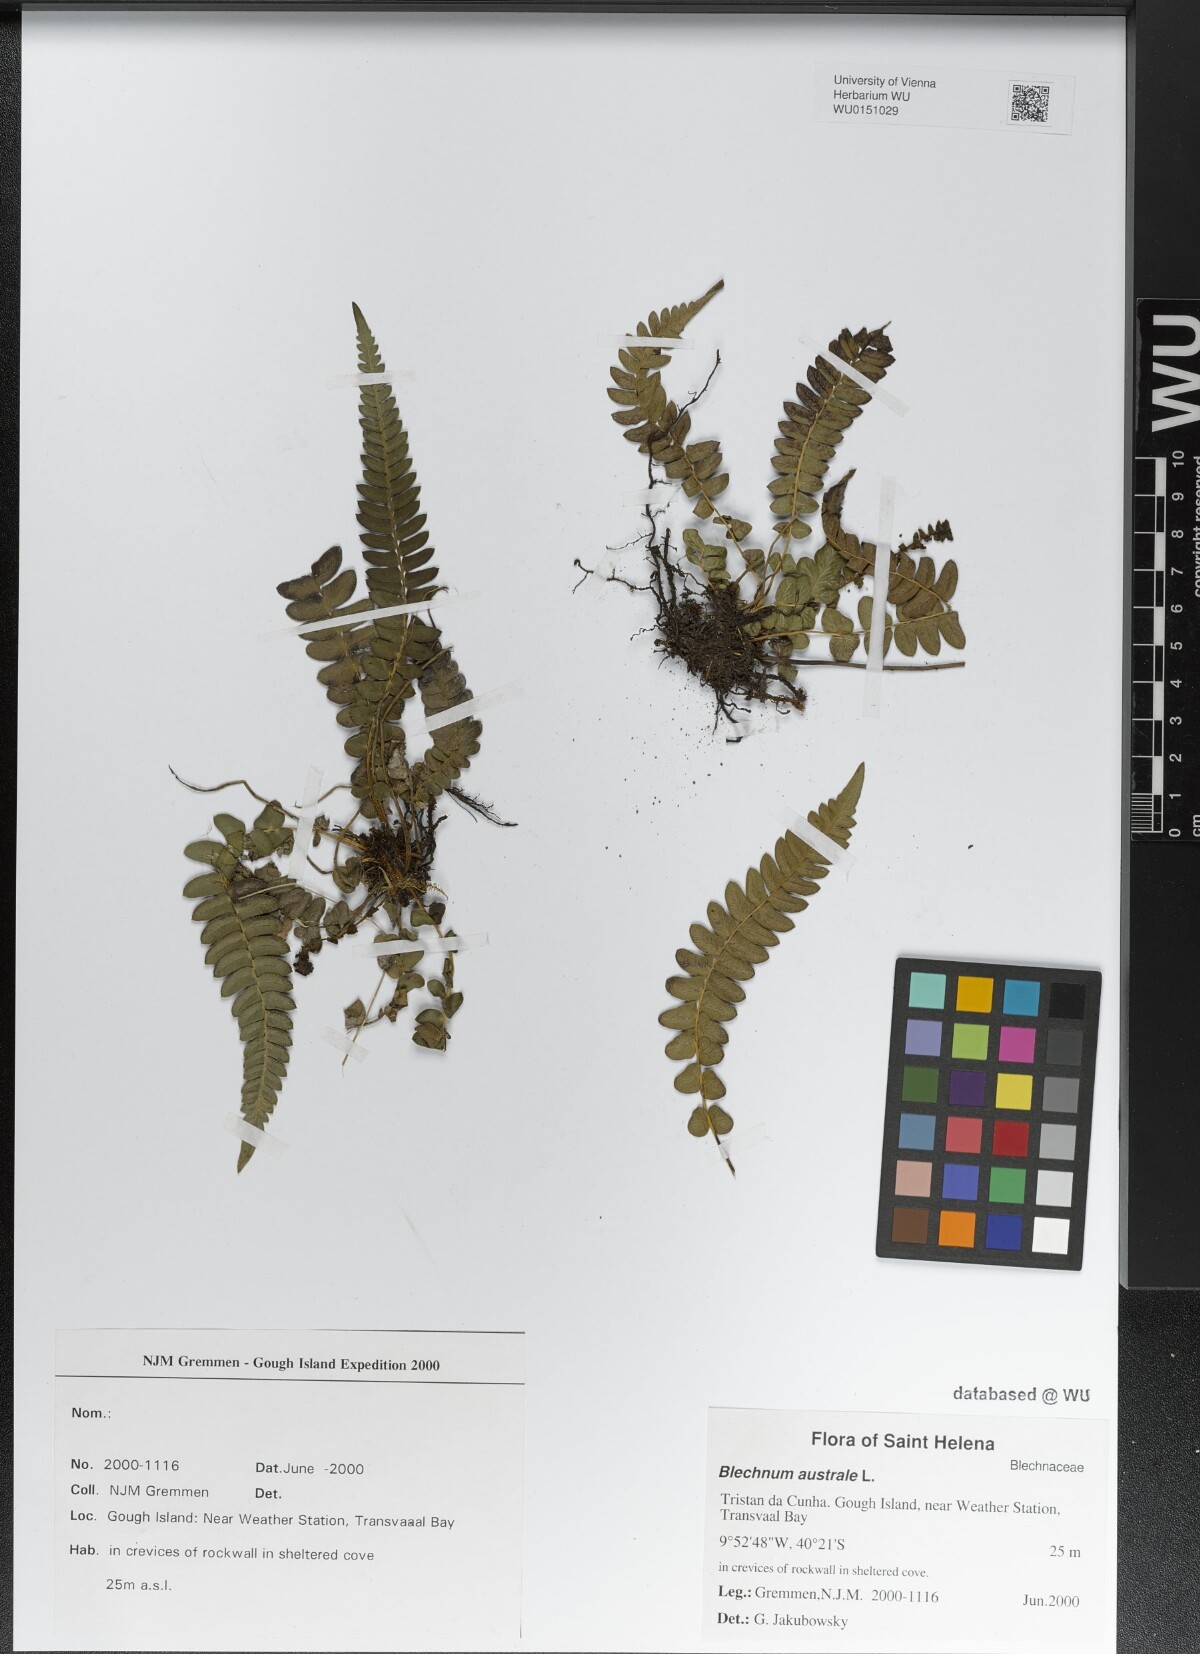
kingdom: Plantae
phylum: Tracheophyta
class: Polypodiopsida
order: Polypodiales
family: Blechnaceae
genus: Blechnum
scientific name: Blechnum australe
